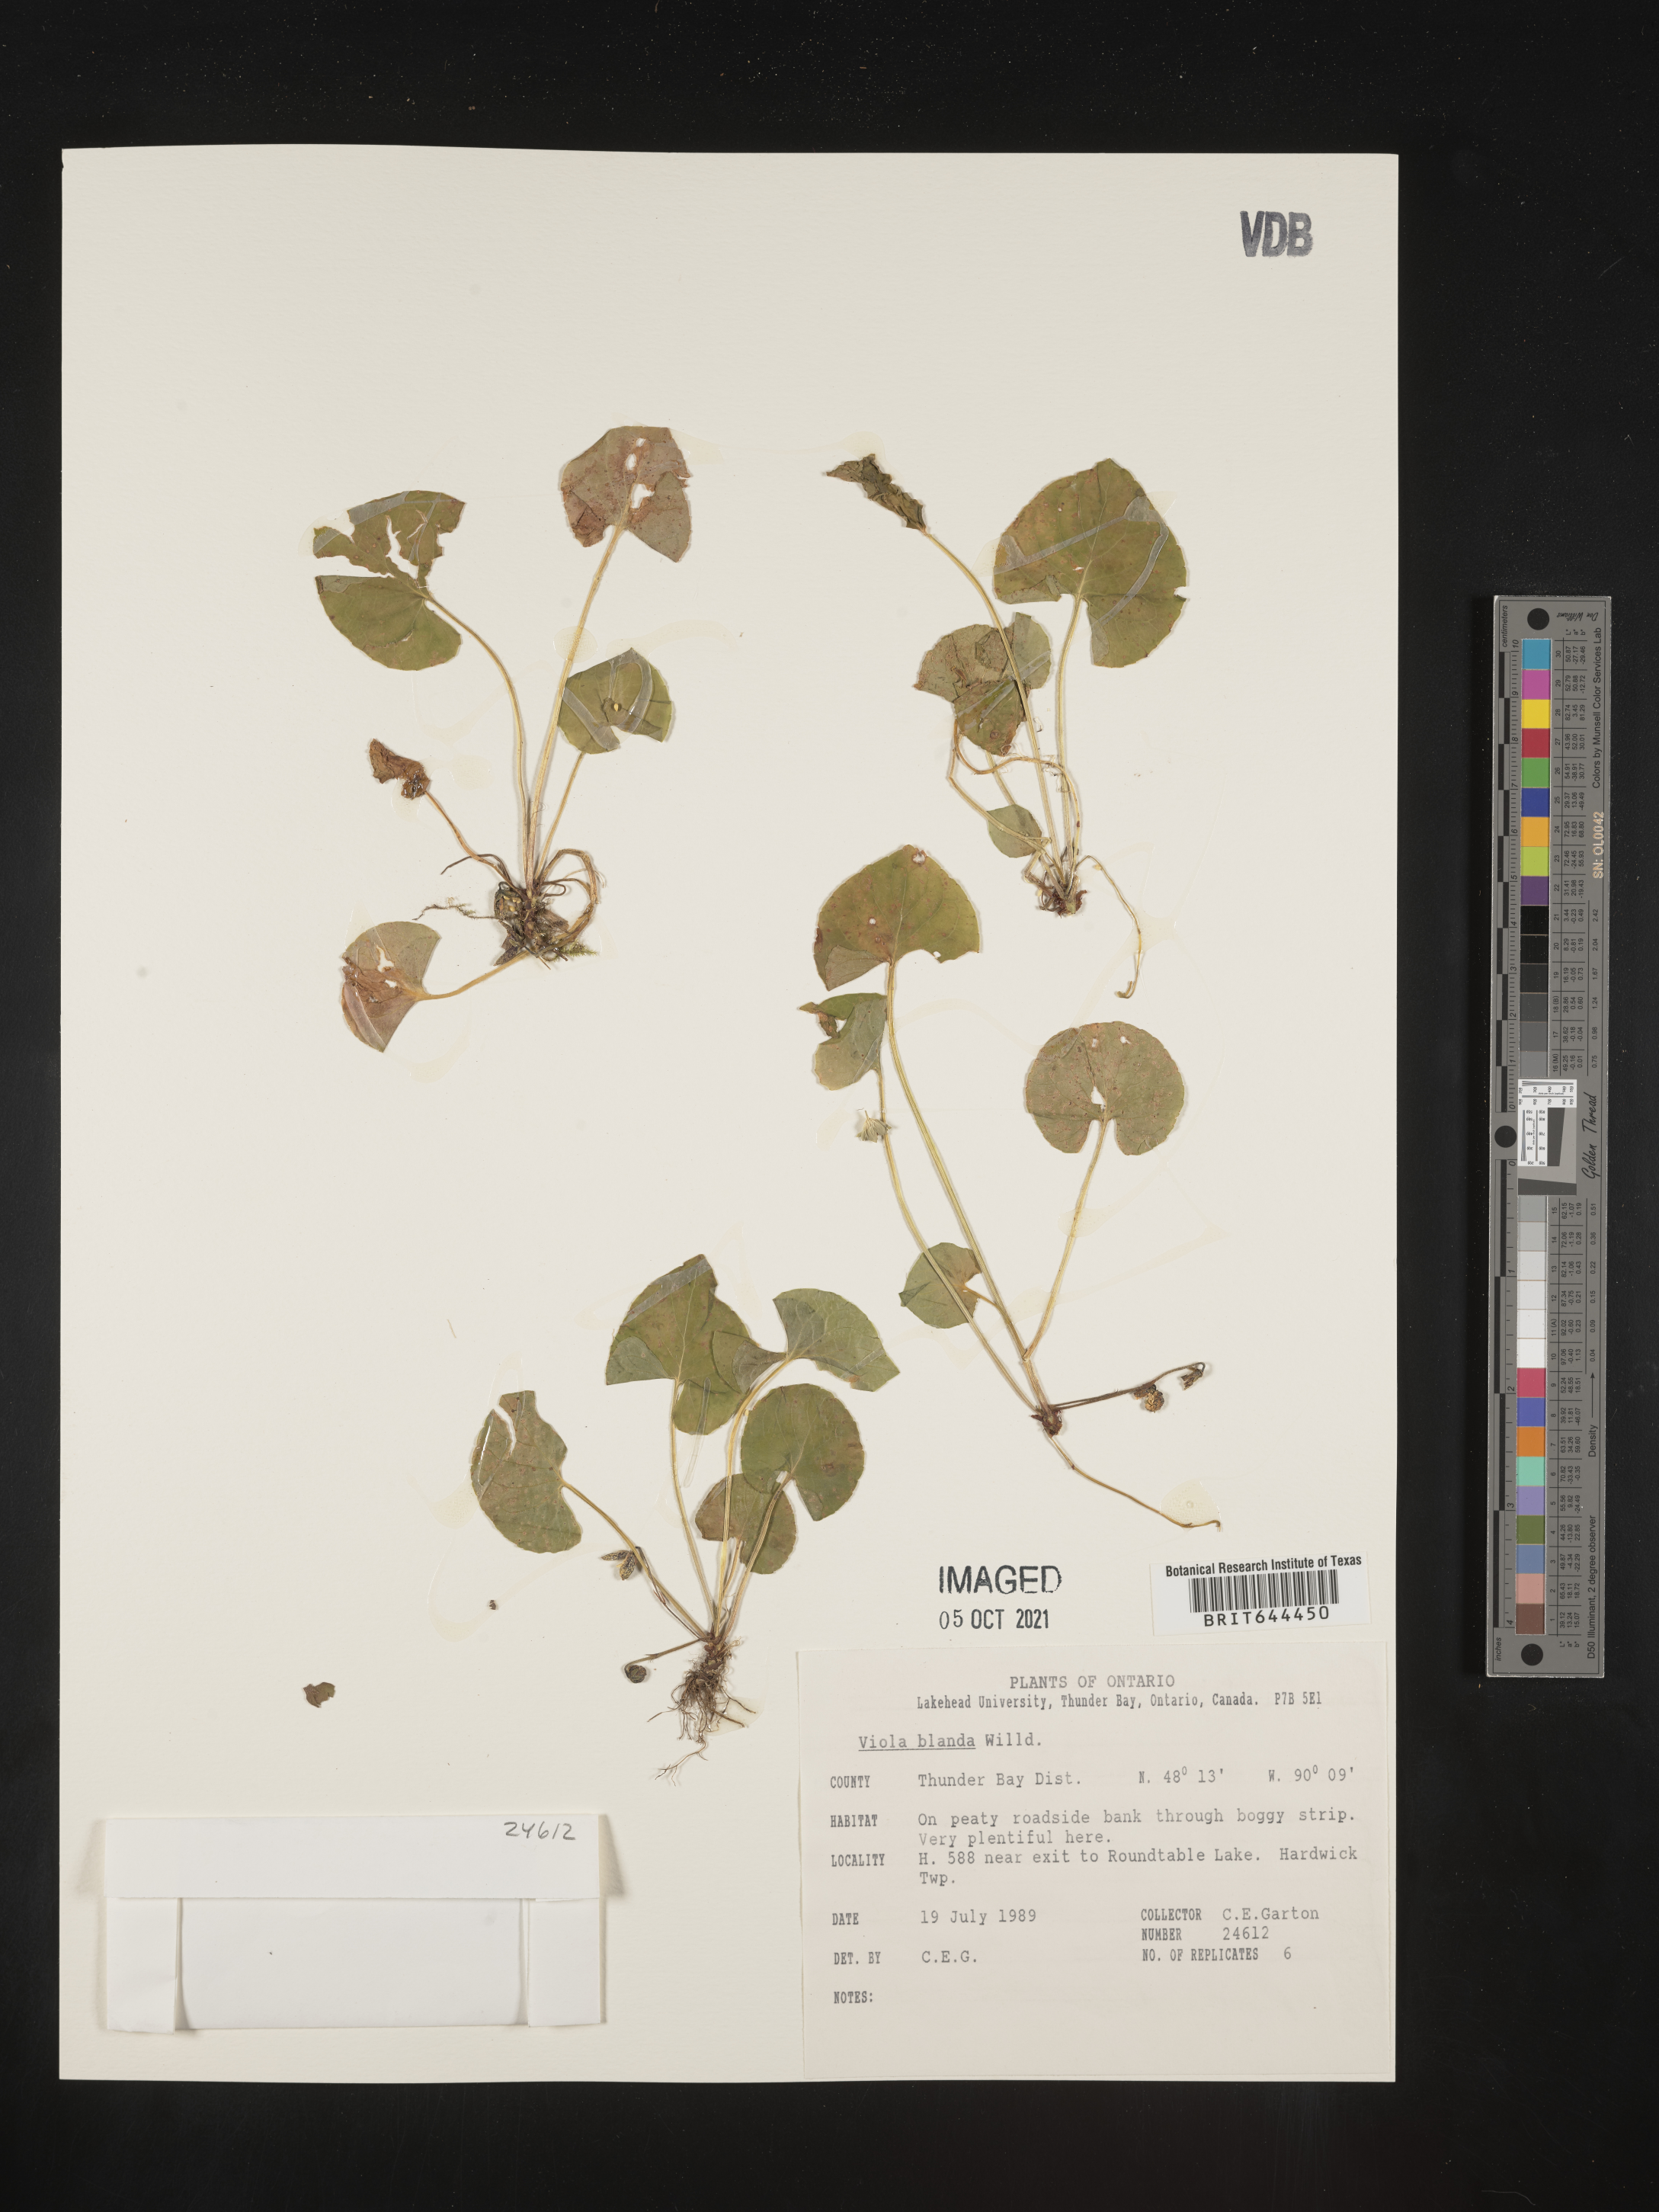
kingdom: Plantae
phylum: Tracheophyta
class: Magnoliopsida
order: Malpighiales
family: Violaceae
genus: Viola
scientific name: Viola
